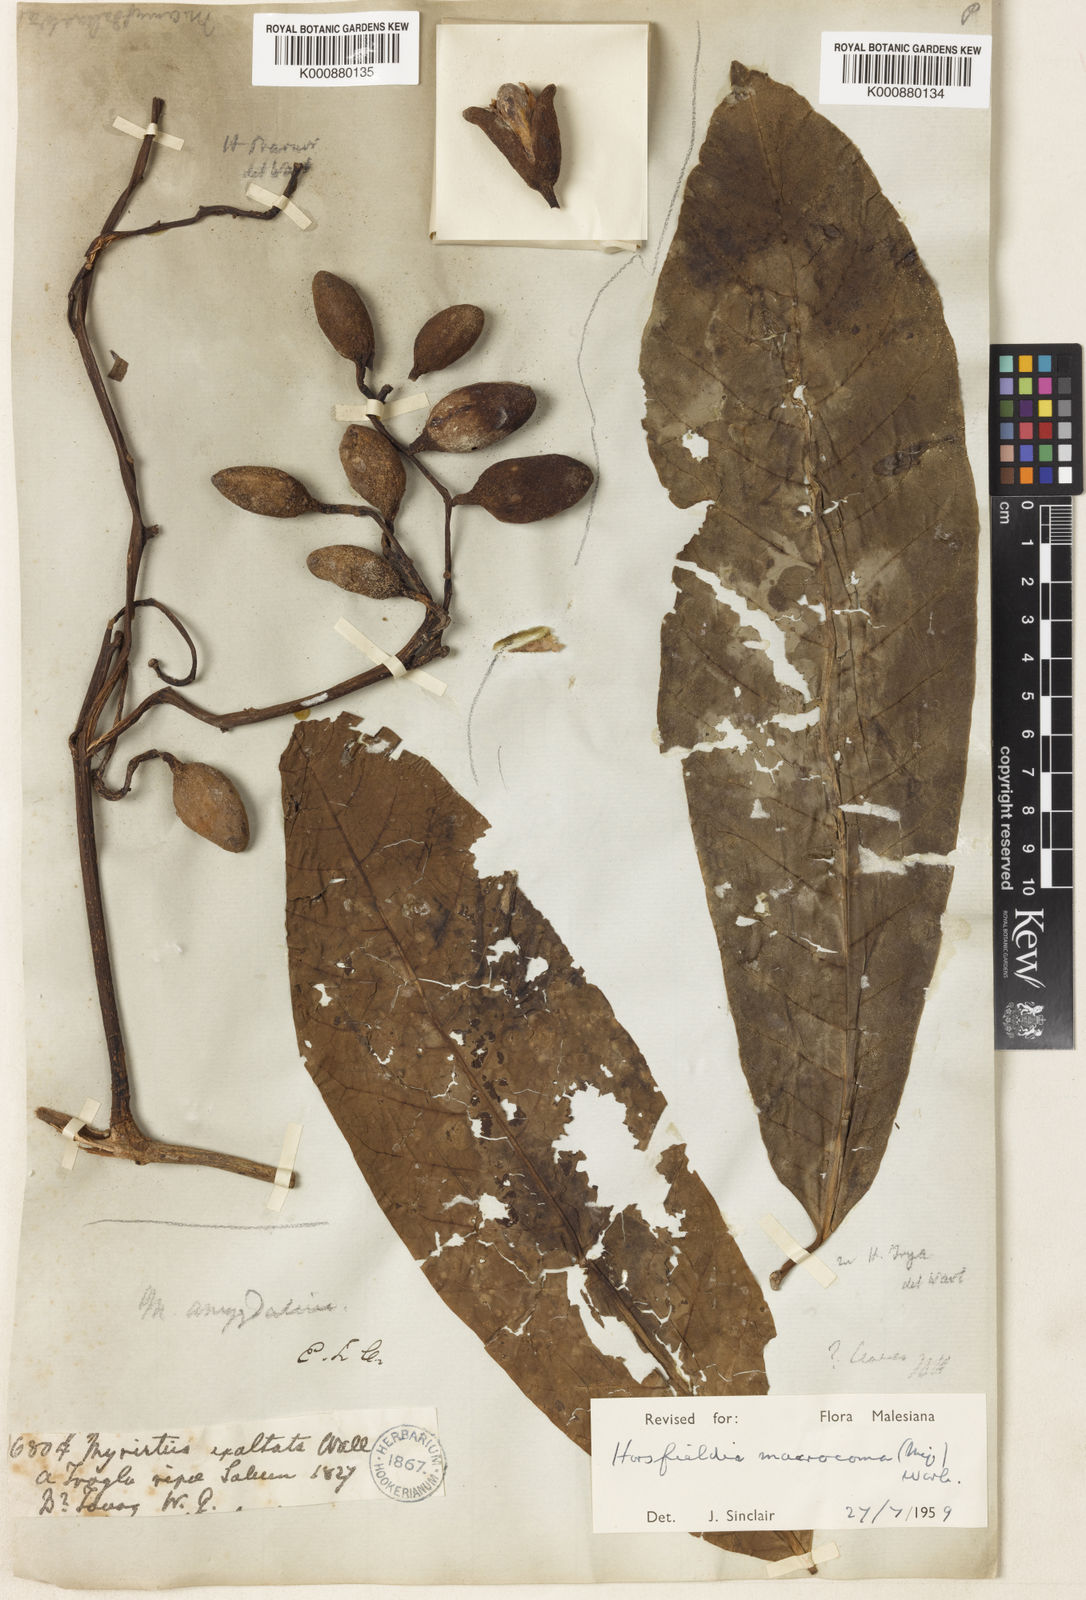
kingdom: Plantae
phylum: Tracheophyta
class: Magnoliopsida
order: Magnoliales
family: Myristicaceae
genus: Endocomia
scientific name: Endocomia macrocoma
